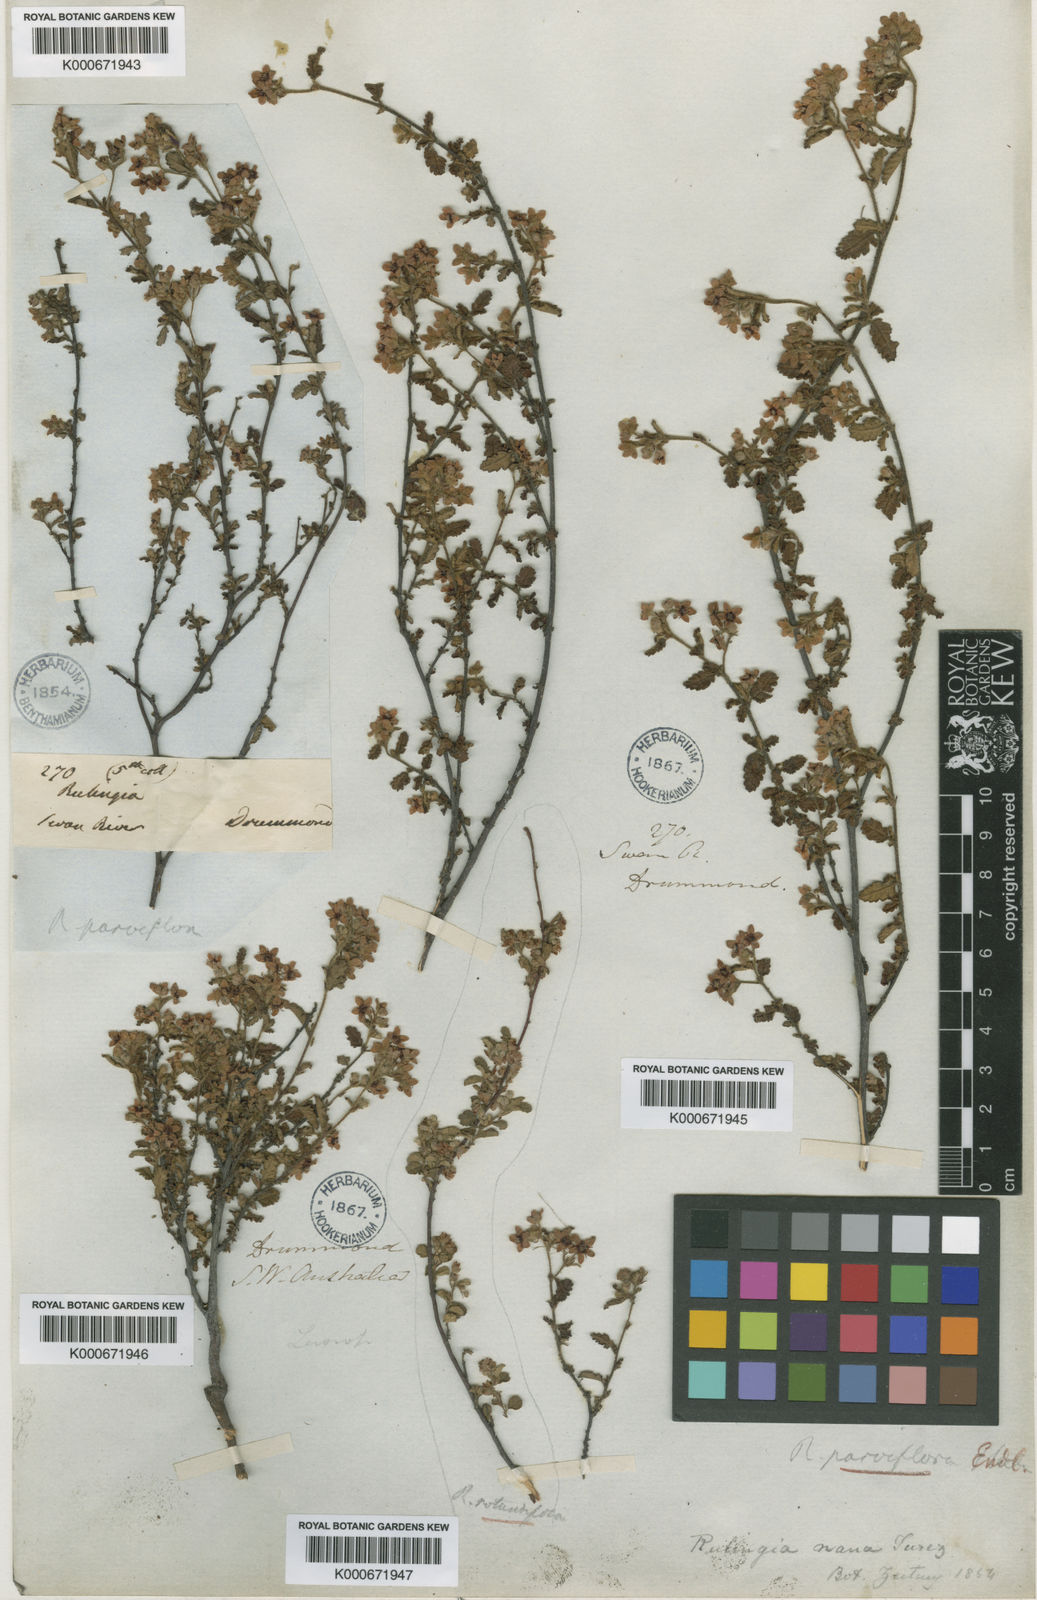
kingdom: Plantae
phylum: Tracheophyta
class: Magnoliopsida
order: Malvales
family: Malvaceae
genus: Commersonia
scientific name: Commersonia parviflora
